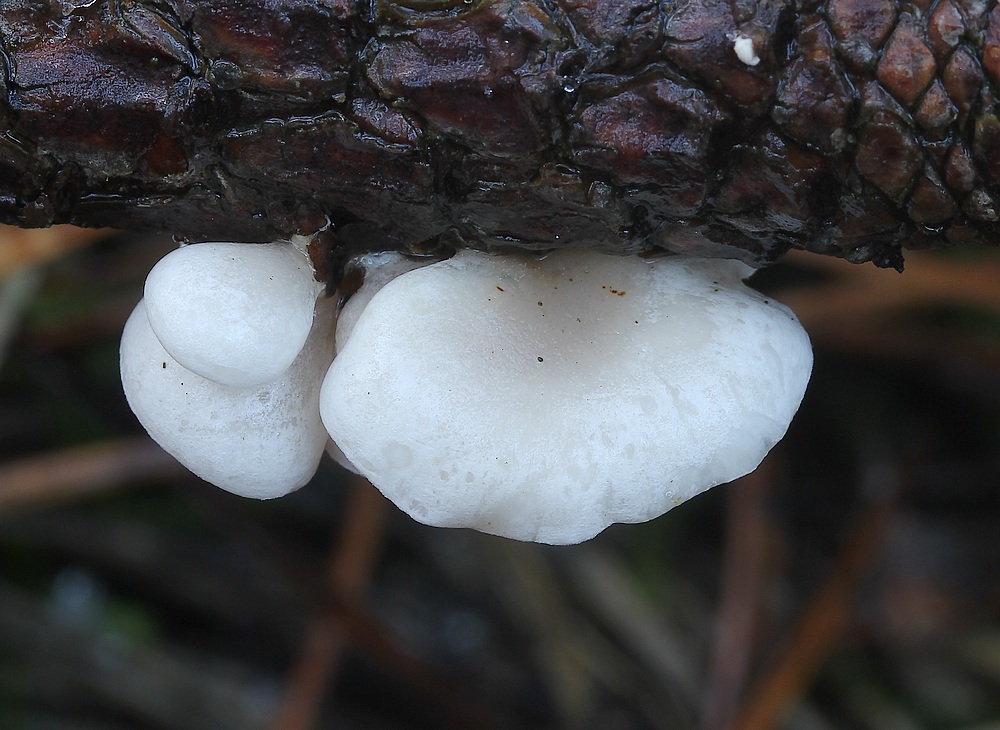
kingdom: Fungi
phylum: Basidiomycota
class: Agaricomycetes
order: Agaricales
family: Mycenaceae
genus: Panellus
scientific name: Panellus mitis
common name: mild epaulethat
